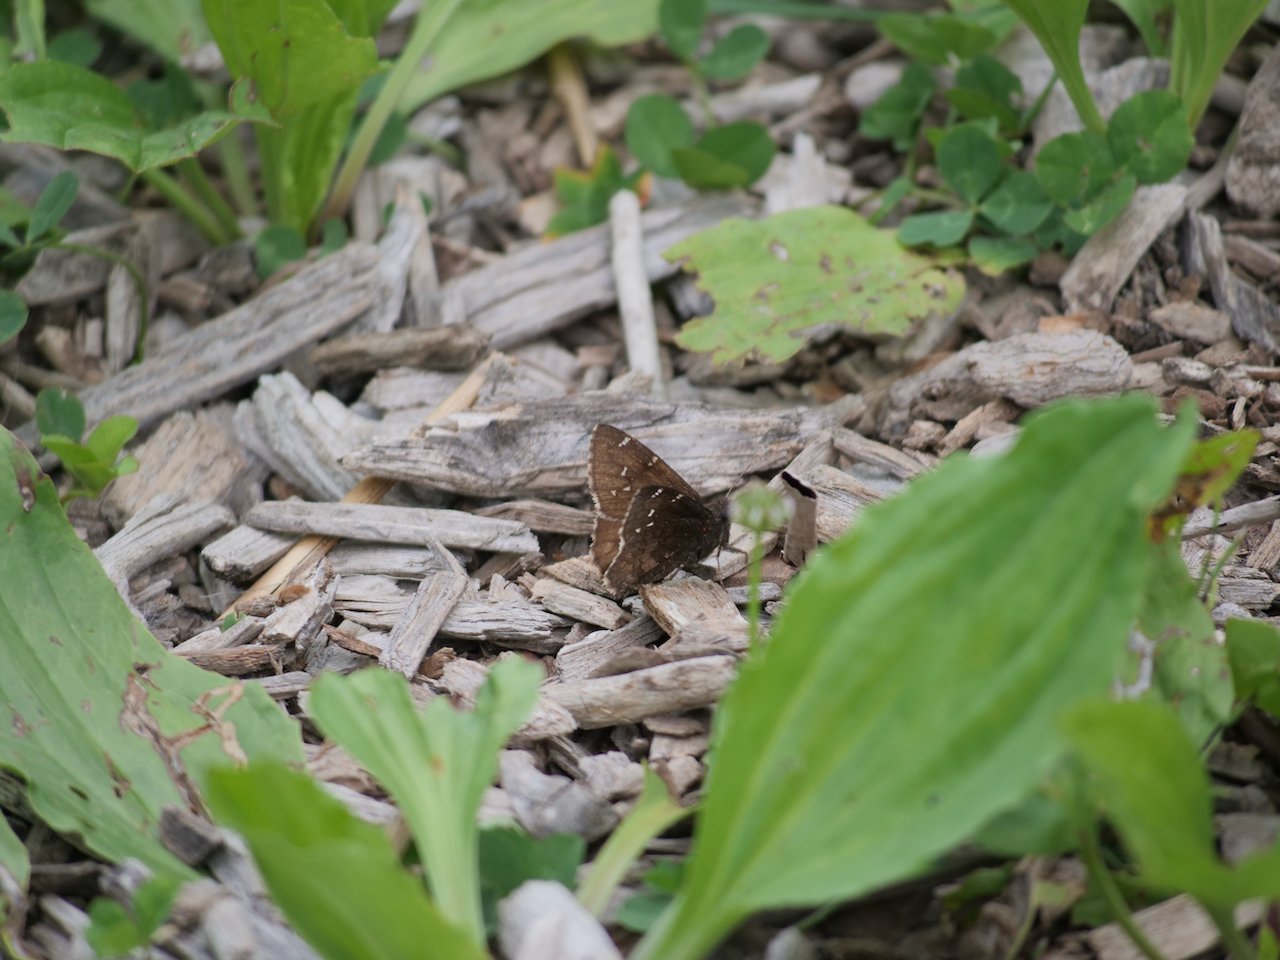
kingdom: Animalia
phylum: Arthropoda
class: Insecta
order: Lepidoptera
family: Hesperiidae
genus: Autochton
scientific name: Autochton
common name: Northern Cloudywing
